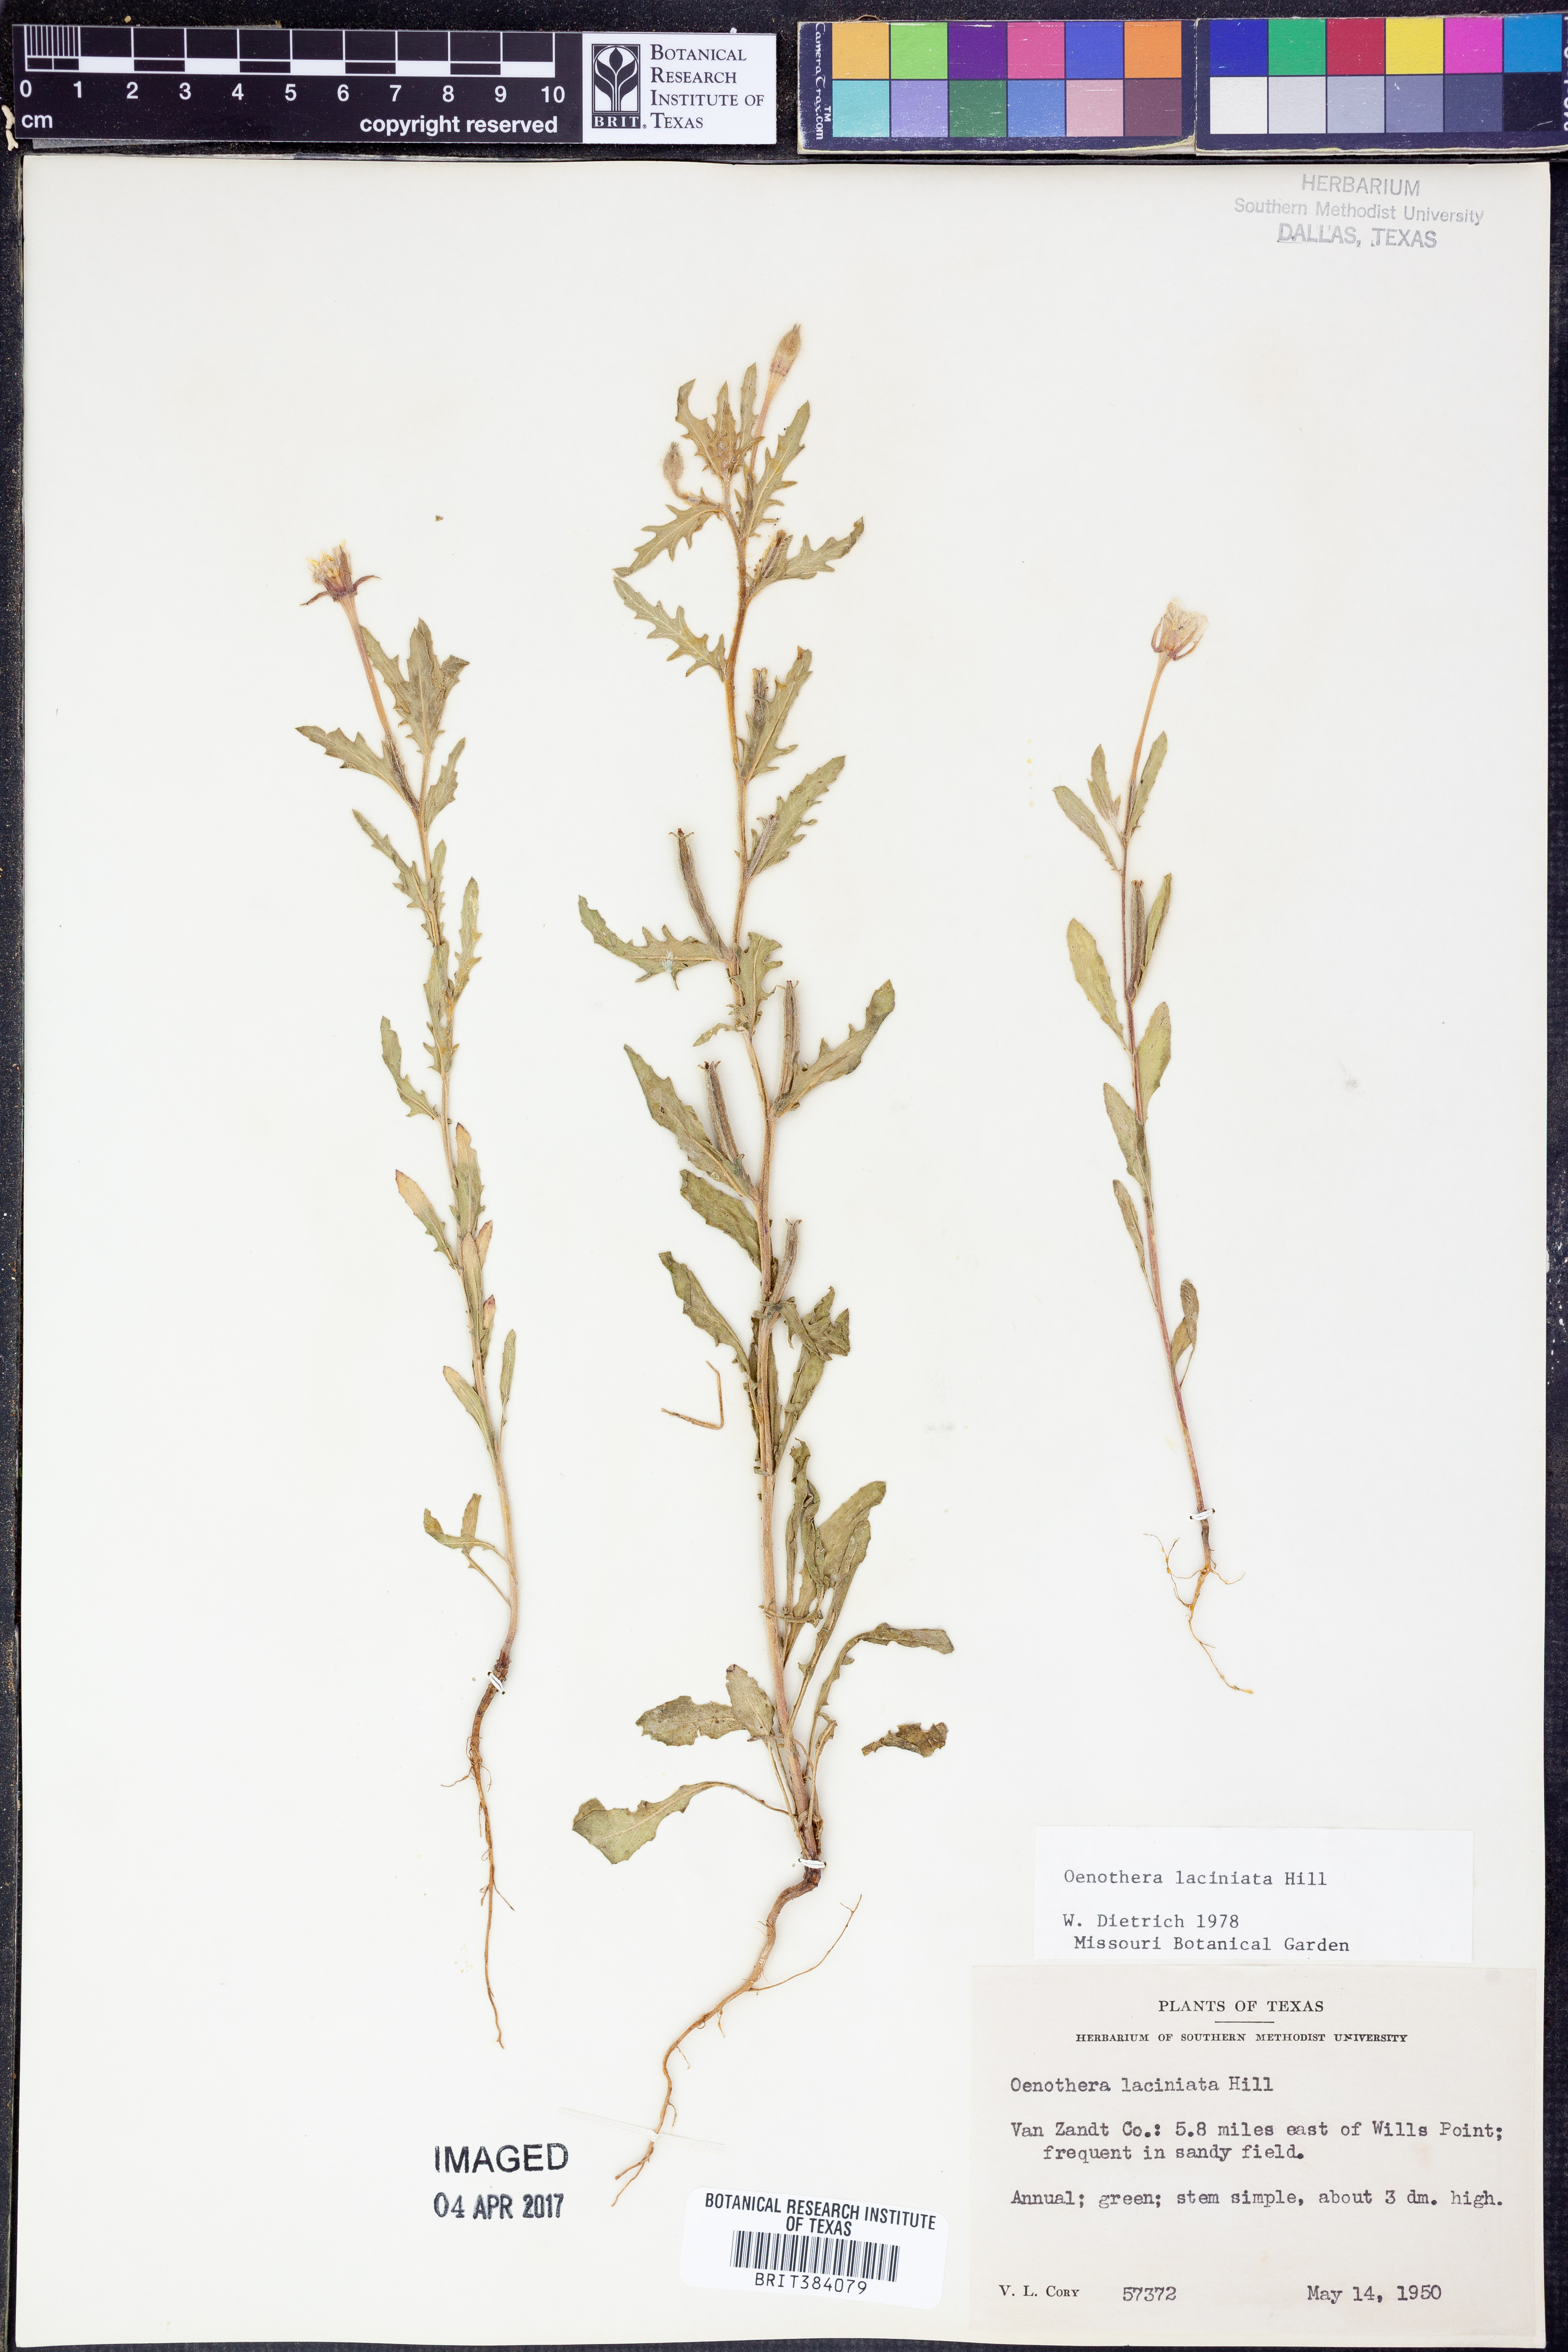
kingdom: Plantae
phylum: Tracheophyta
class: Magnoliopsida
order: Myrtales
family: Onagraceae
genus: Oenothera
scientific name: Oenothera laciniata
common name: Cut-leaved evening-primrose
